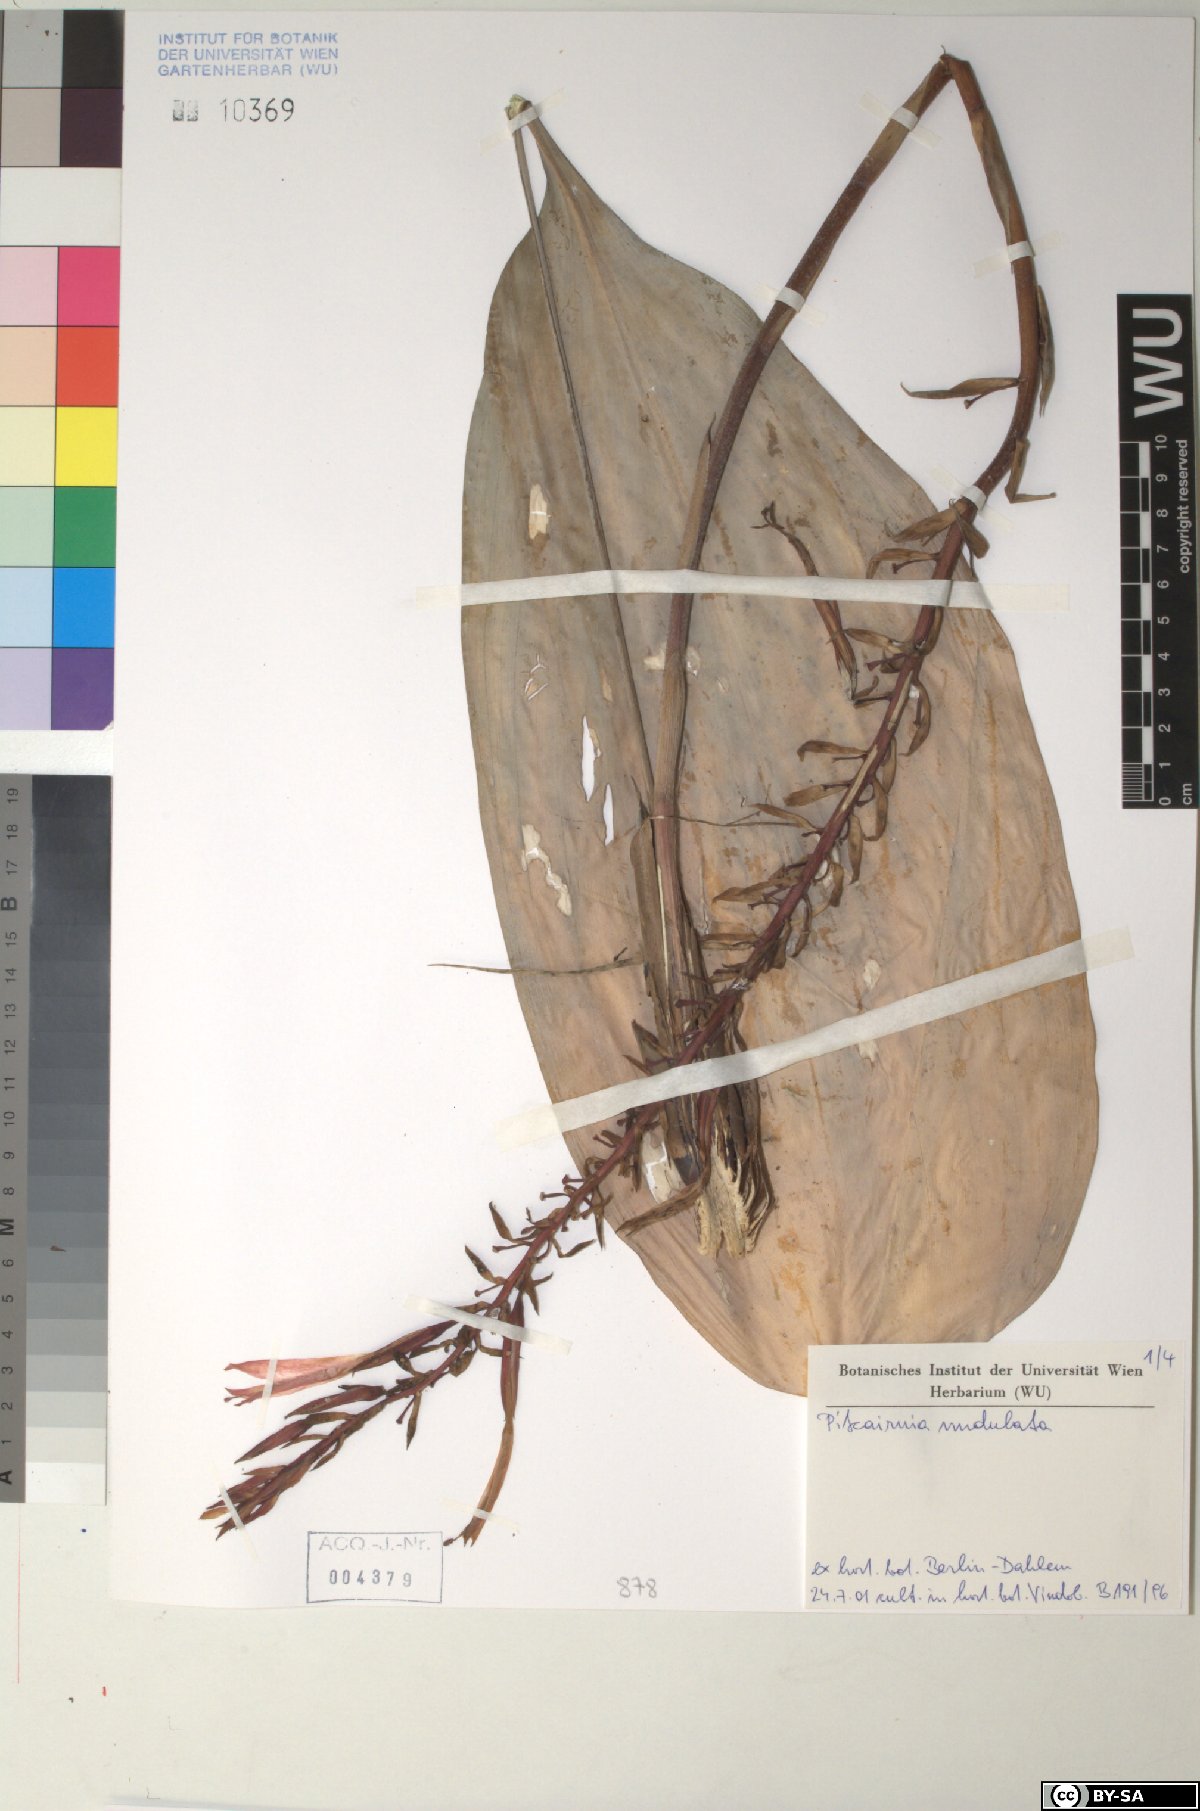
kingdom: Plantae
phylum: Tracheophyta
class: Liliopsida
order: Poales
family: Bromeliaceae
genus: Pitcairnia
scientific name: Pitcairnia
